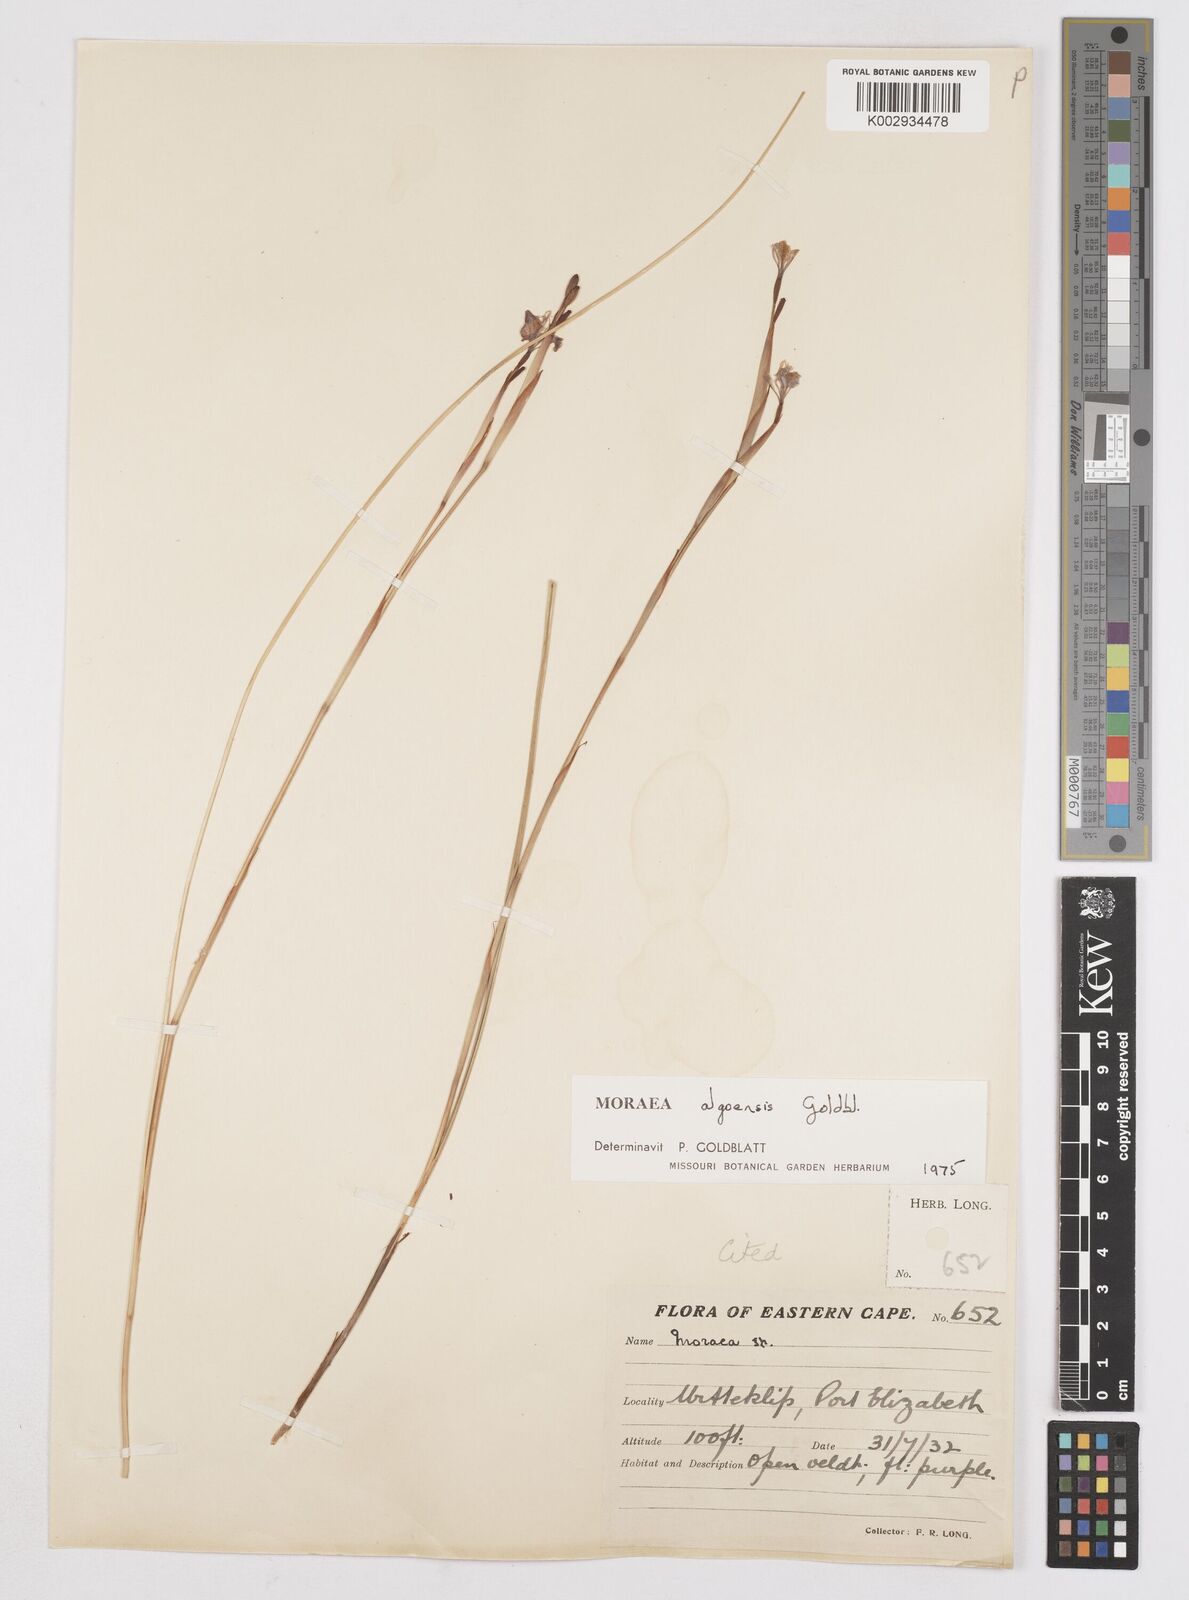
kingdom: Plantae
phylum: Tracheophyta
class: Liliopsida
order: Asparagales
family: Iridaceae
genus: Moraea
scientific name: Moraea algoensis
